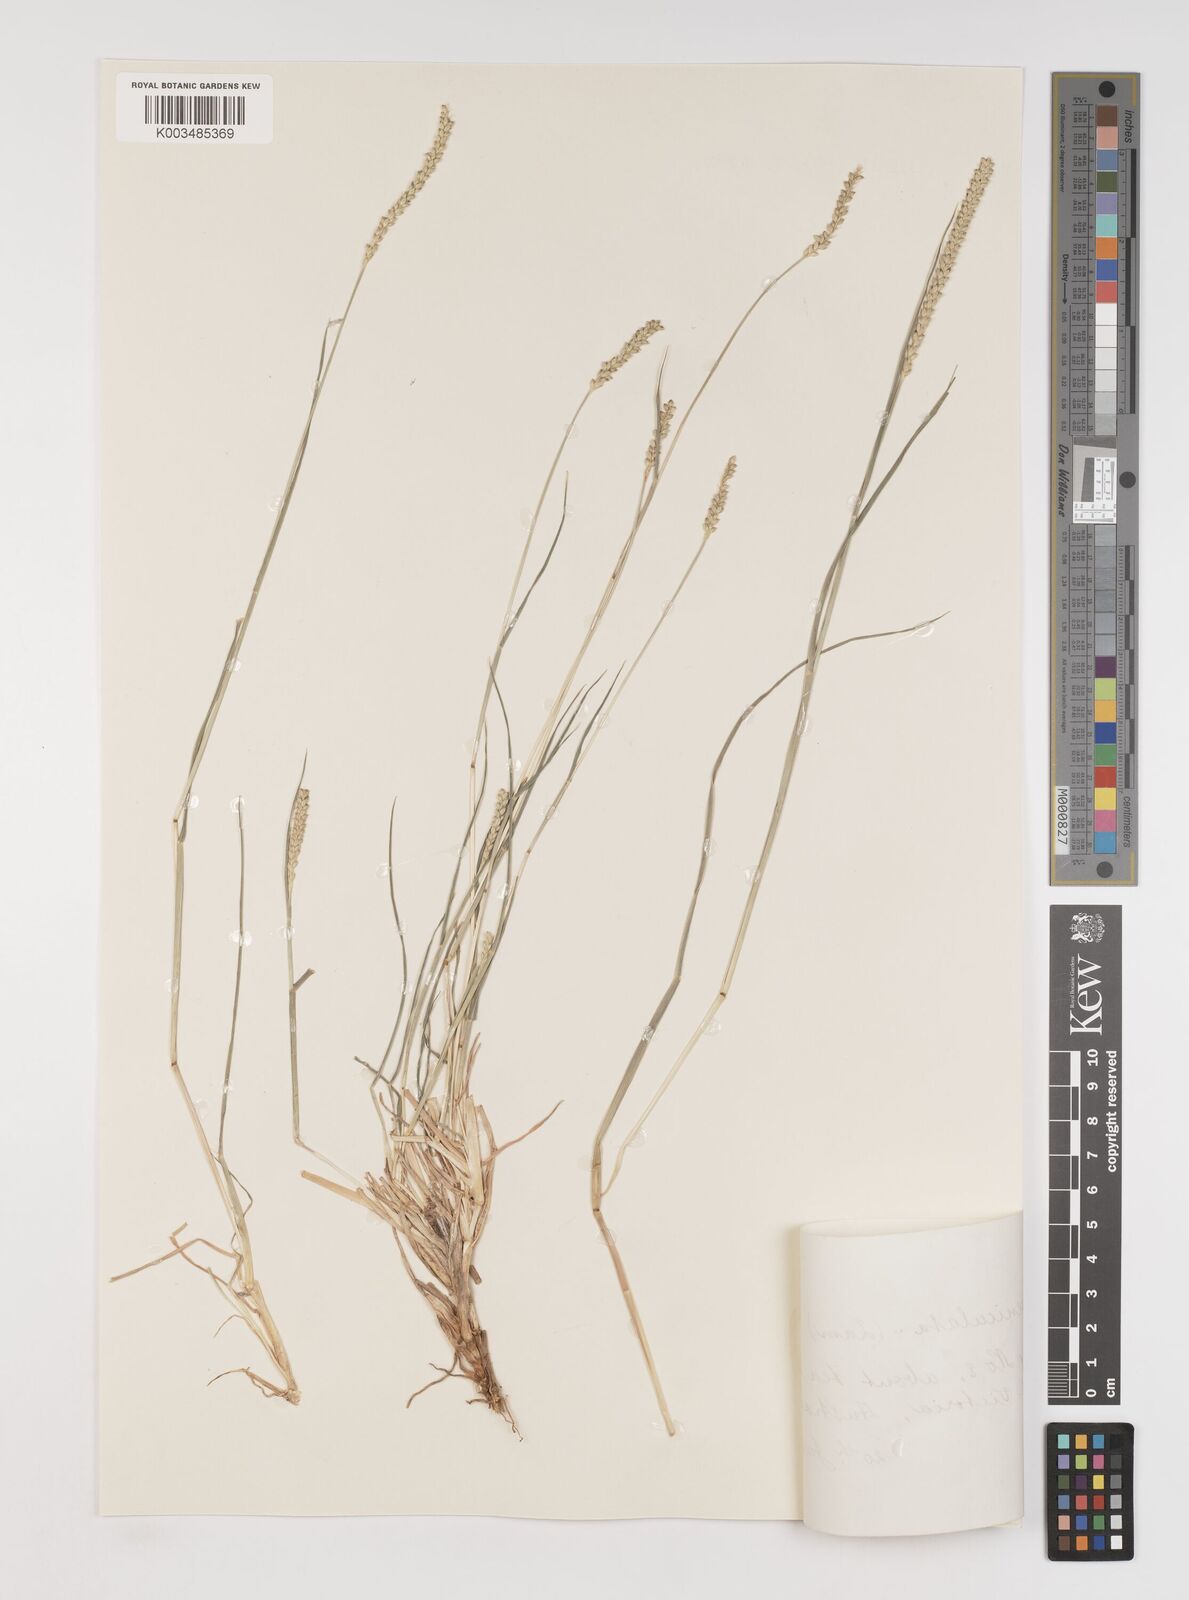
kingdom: Plantae
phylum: Tracheophyta
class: Liliopsida
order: Poales
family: Poaceae
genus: Setaria
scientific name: Setaria parviflora
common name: Knotroot bristle-grass
